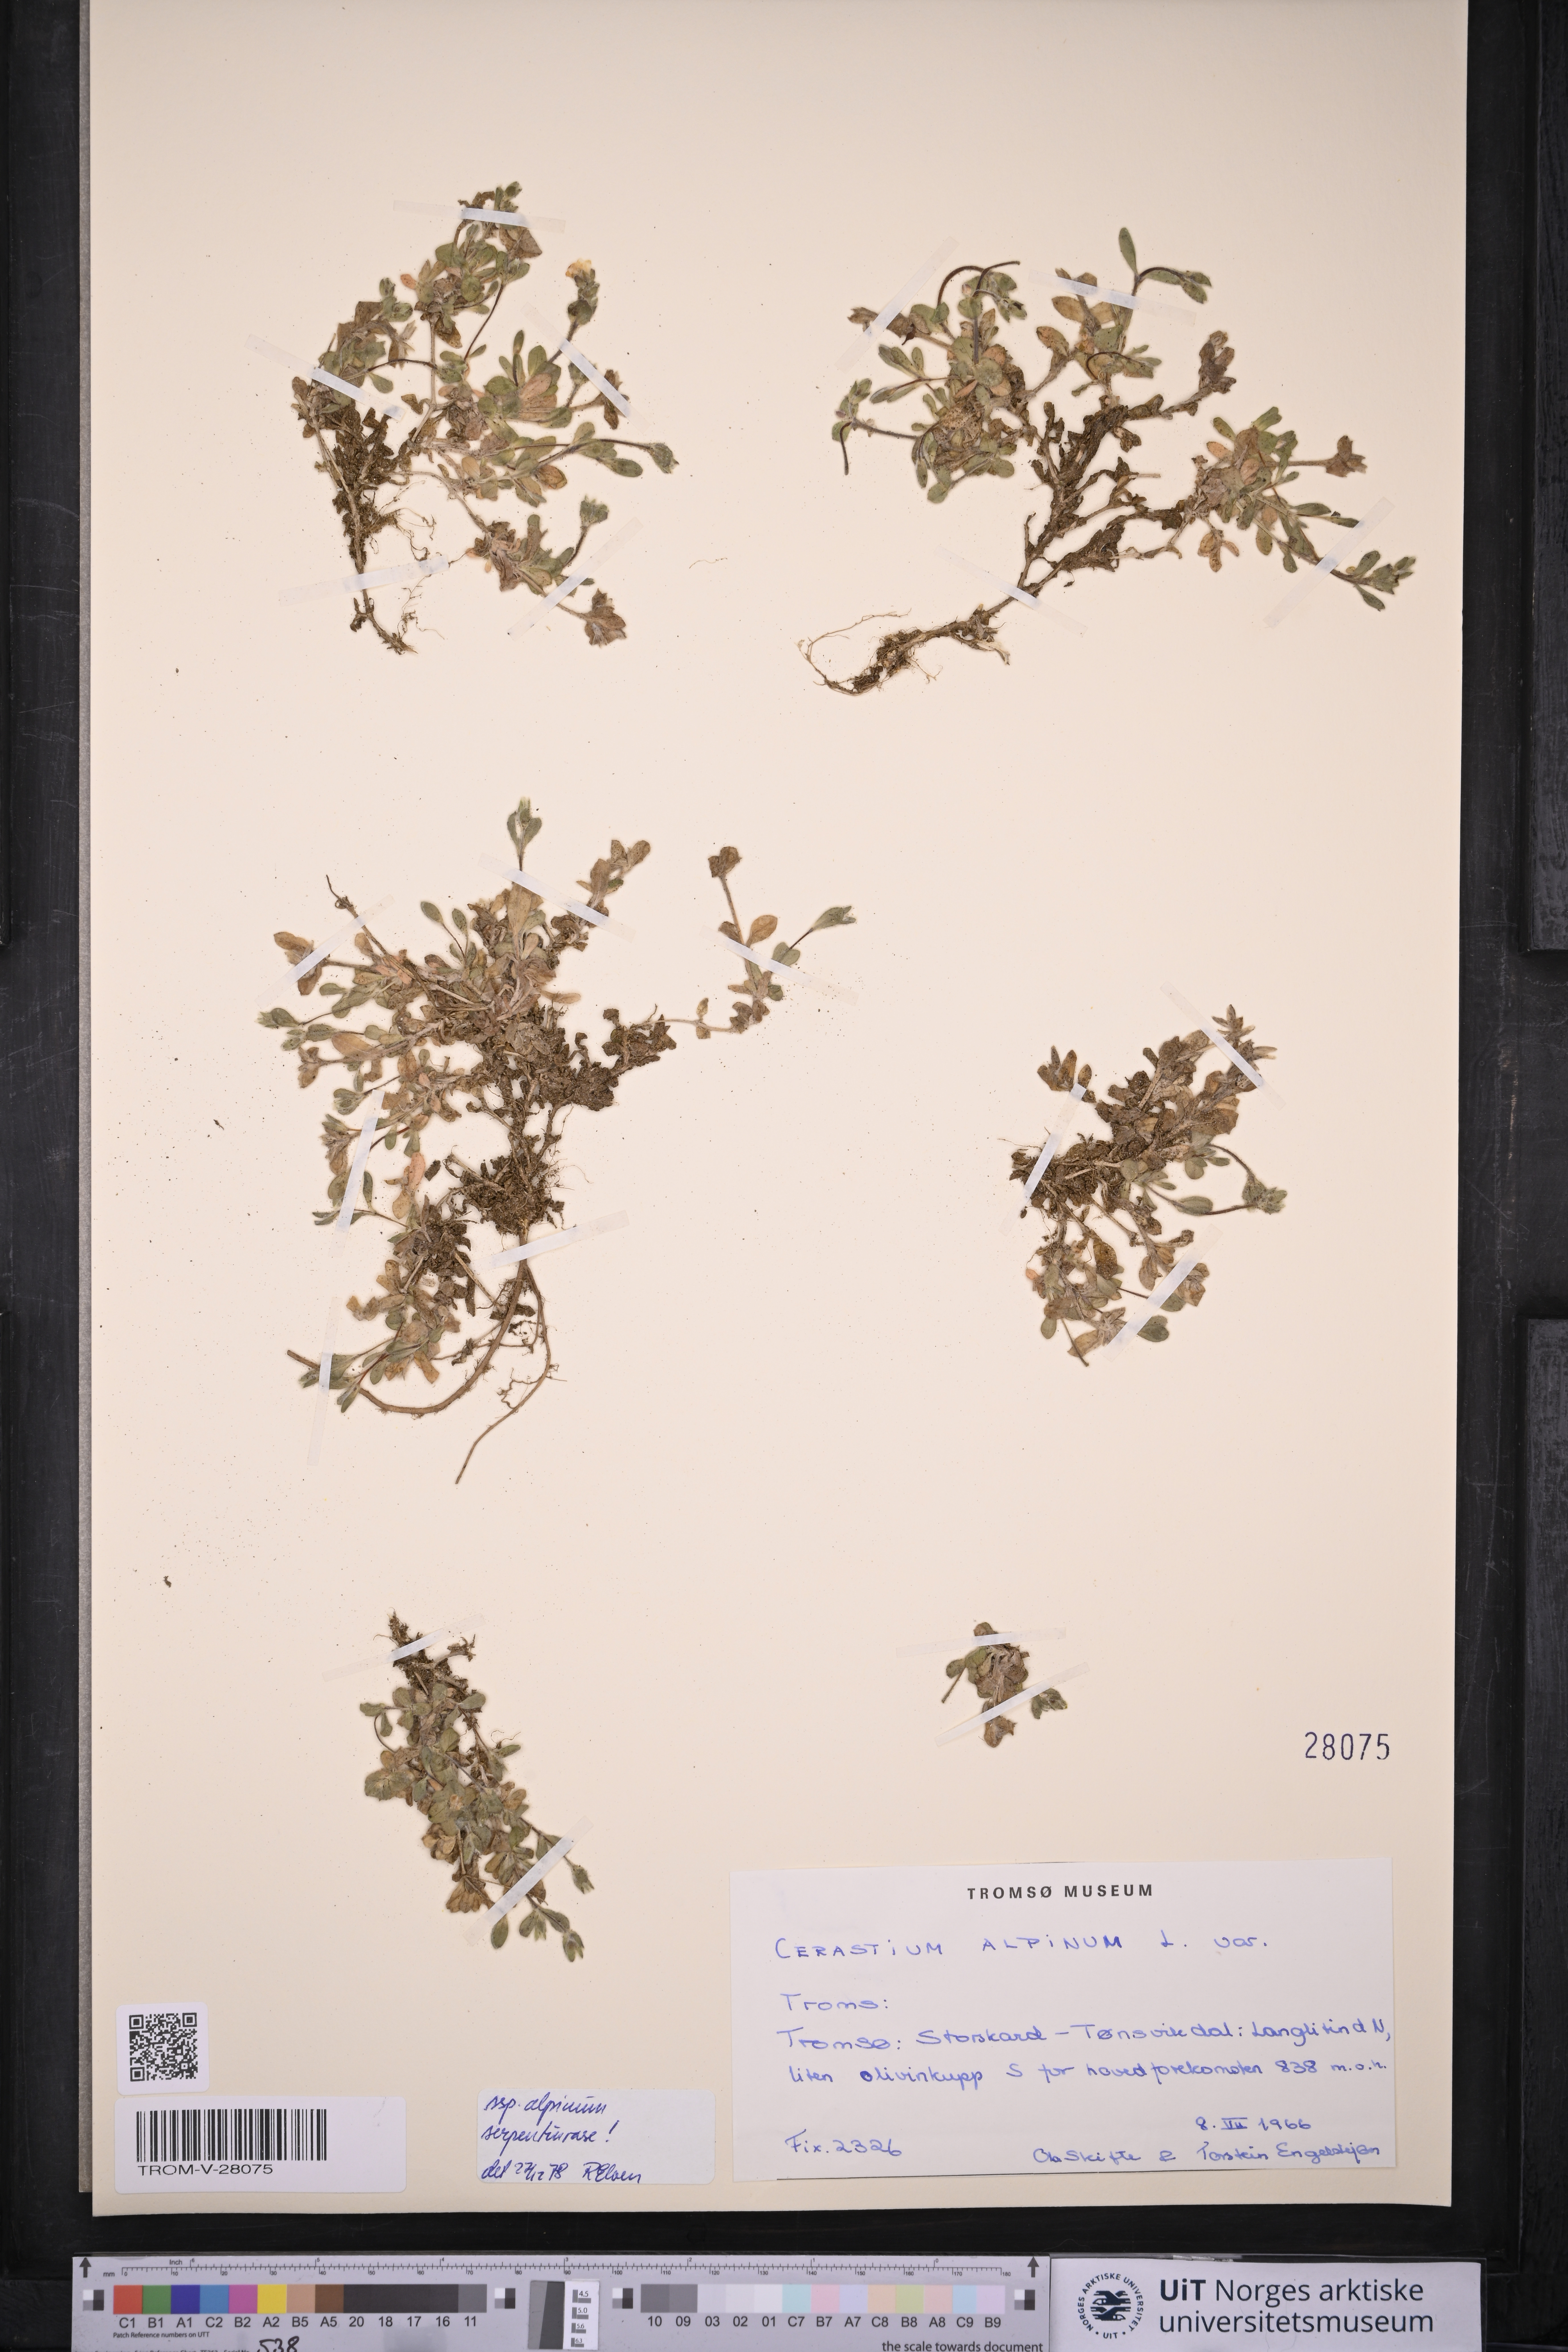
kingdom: Plantae
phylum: Tracheophyta
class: Magnoliopsida
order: Caryophyllales
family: Caryophyllaceae
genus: Cerastium
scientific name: Cerastium alpinum
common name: Alpine mouse-ear
